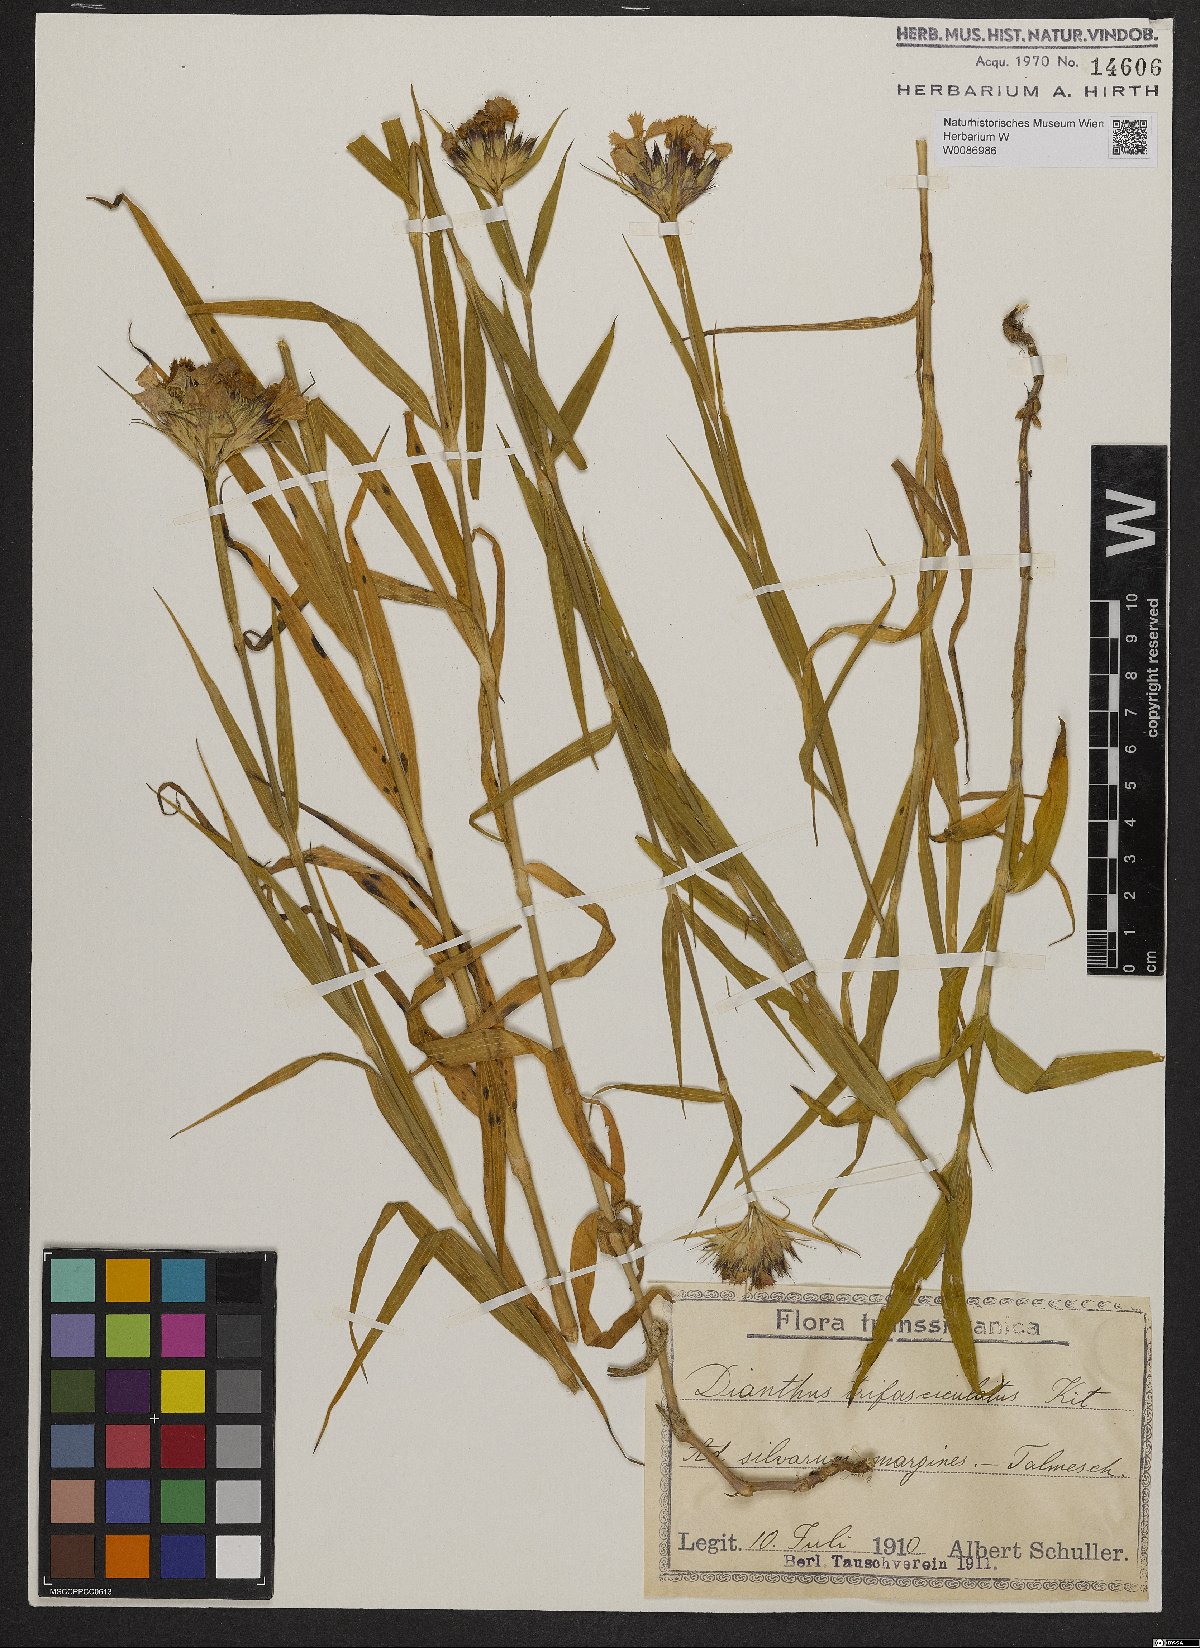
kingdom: Plantae
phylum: Tracheophyta
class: Magnoliopsida
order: Caryophyllales
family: Caryophyllaceae
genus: Dianthus
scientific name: Dianthus trifasciculatus
